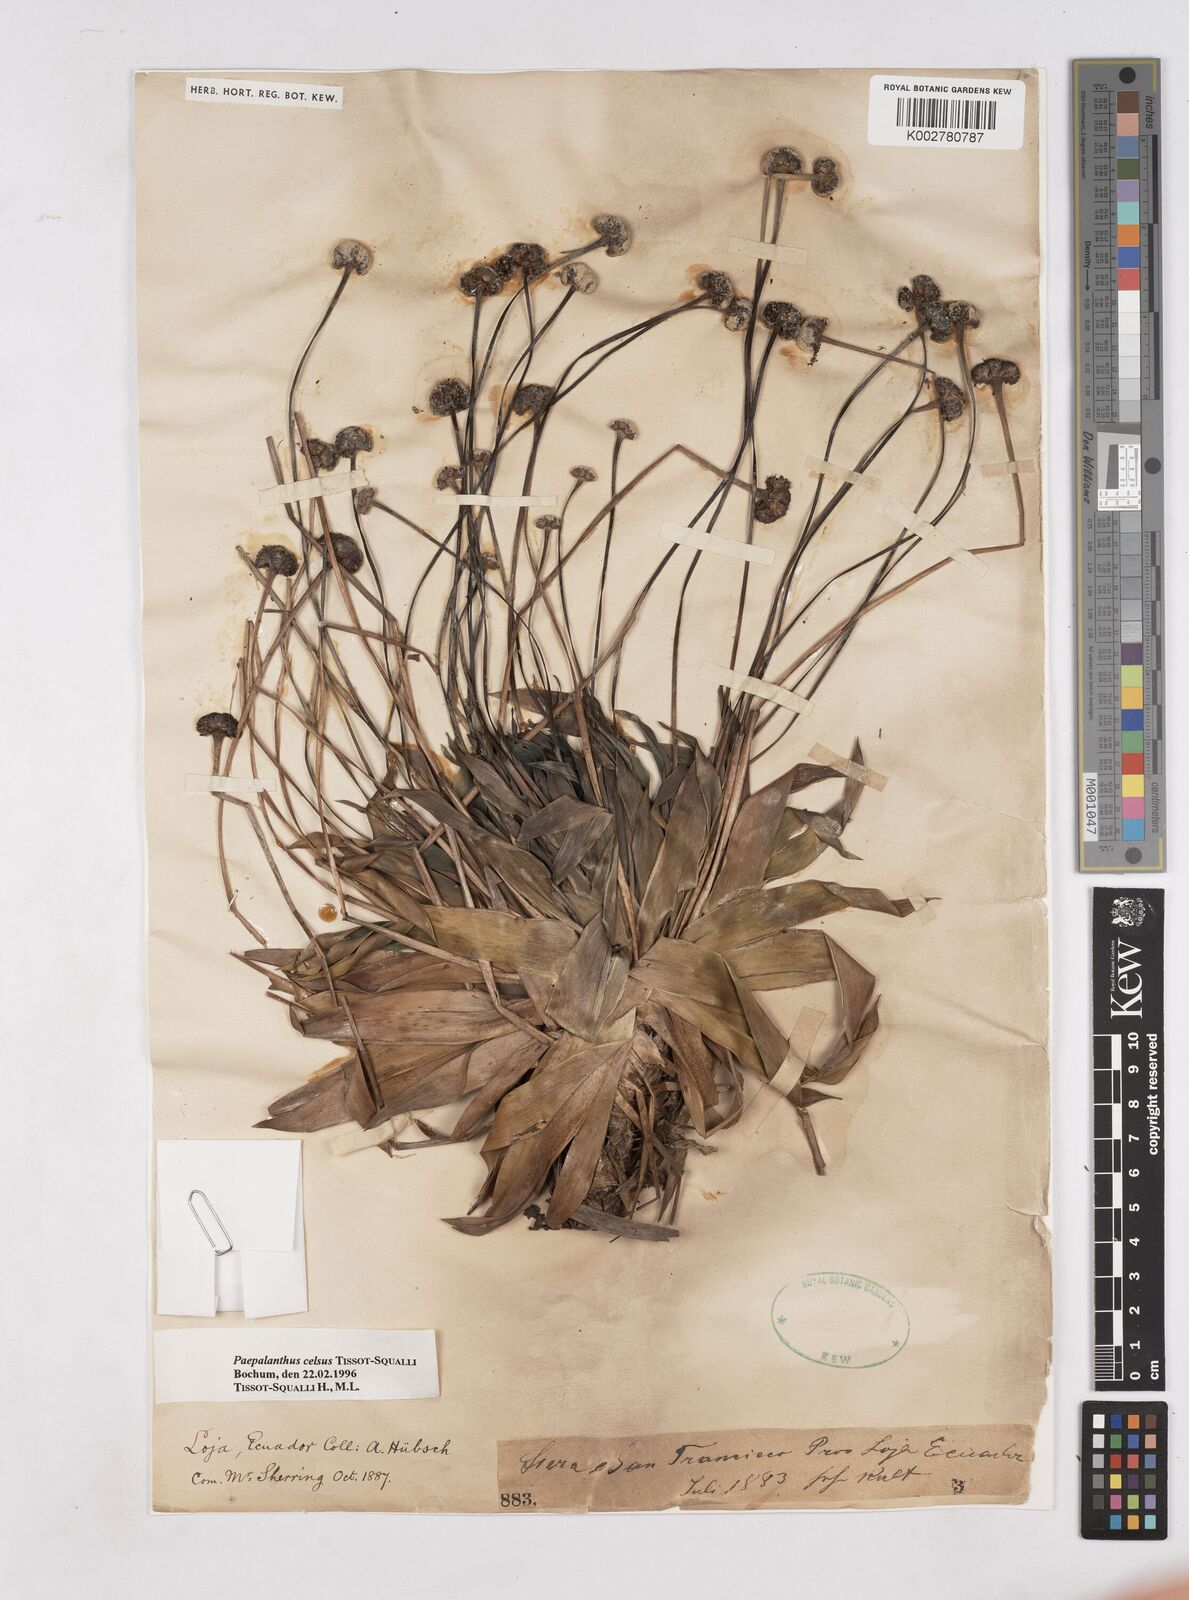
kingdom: Plantae
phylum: Tracheophyta
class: Liliopsida
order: Poales
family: Eriocaulaceae
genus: Paepalanthus
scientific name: Paepalanthus celsus
